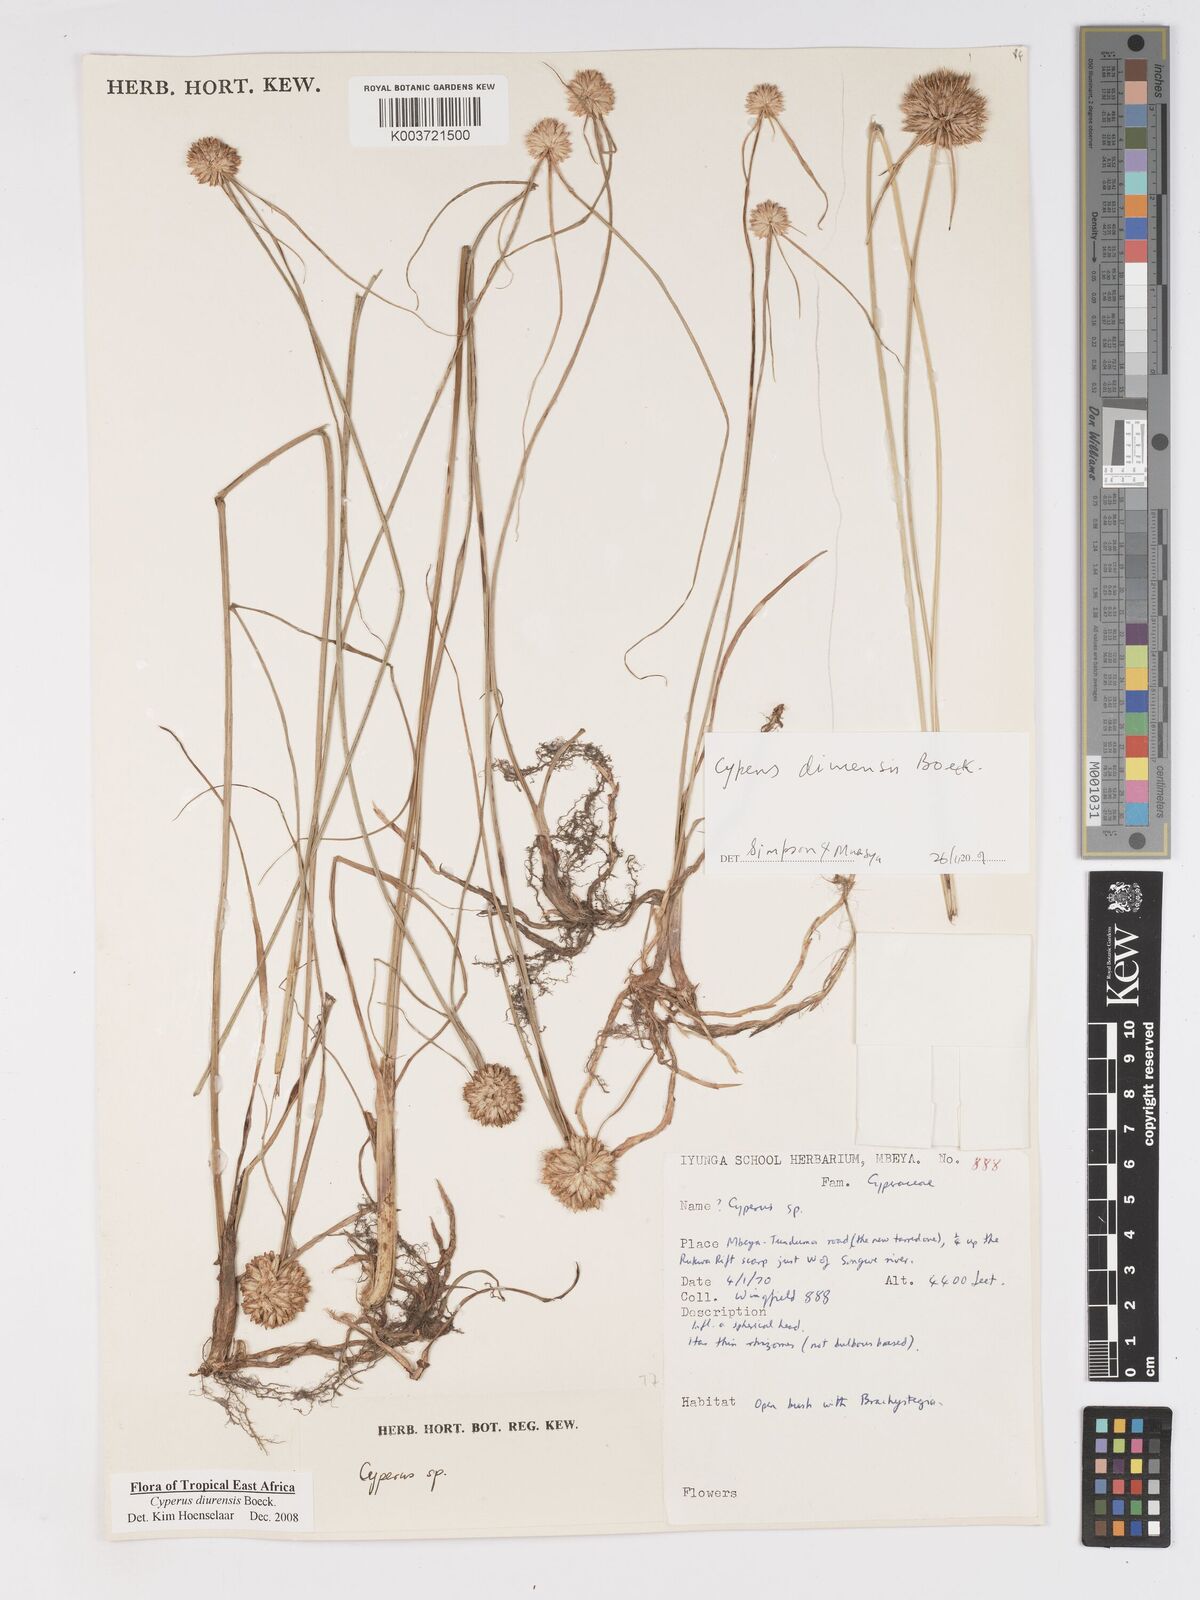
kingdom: Plantae
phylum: Tracheophyta
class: Liliopsida
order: Poales
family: Cyperaceae
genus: Cyperus
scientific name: Cyperus diurensis
